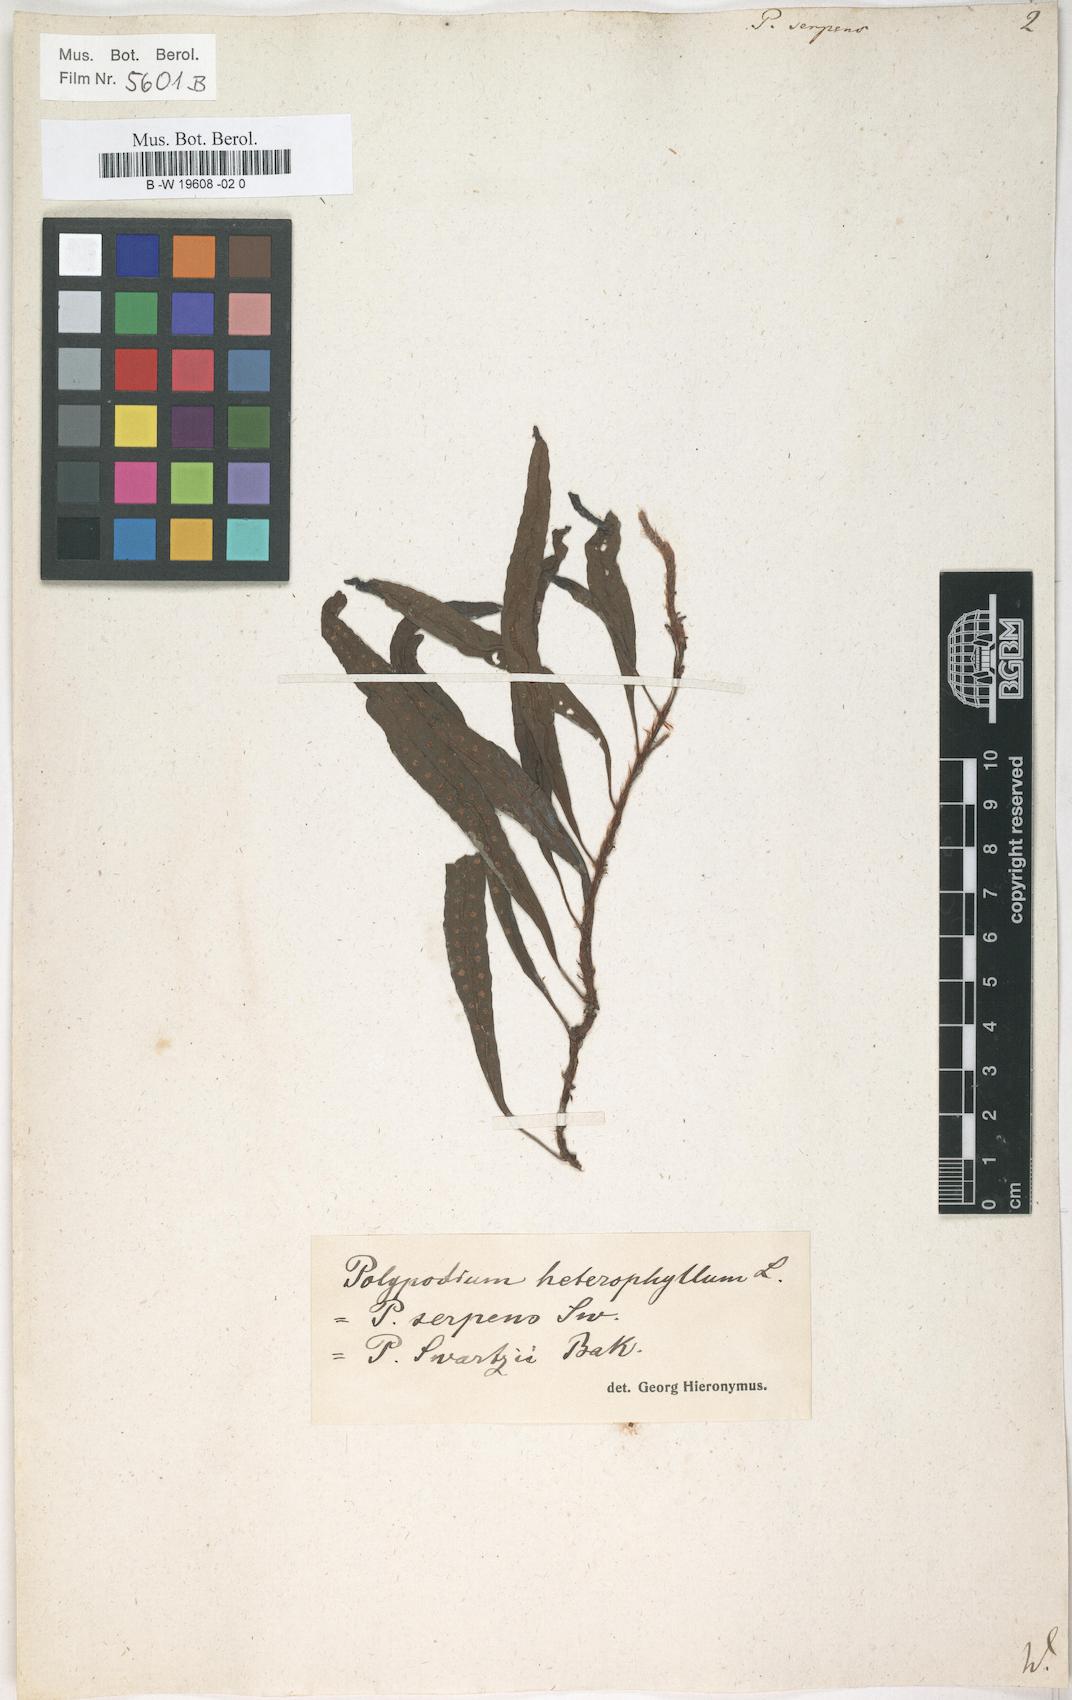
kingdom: Plantae
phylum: Tracheophyta
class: Polypodiopsida
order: Polypodiales
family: Polypodiaceae
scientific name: Polypodiaceae
